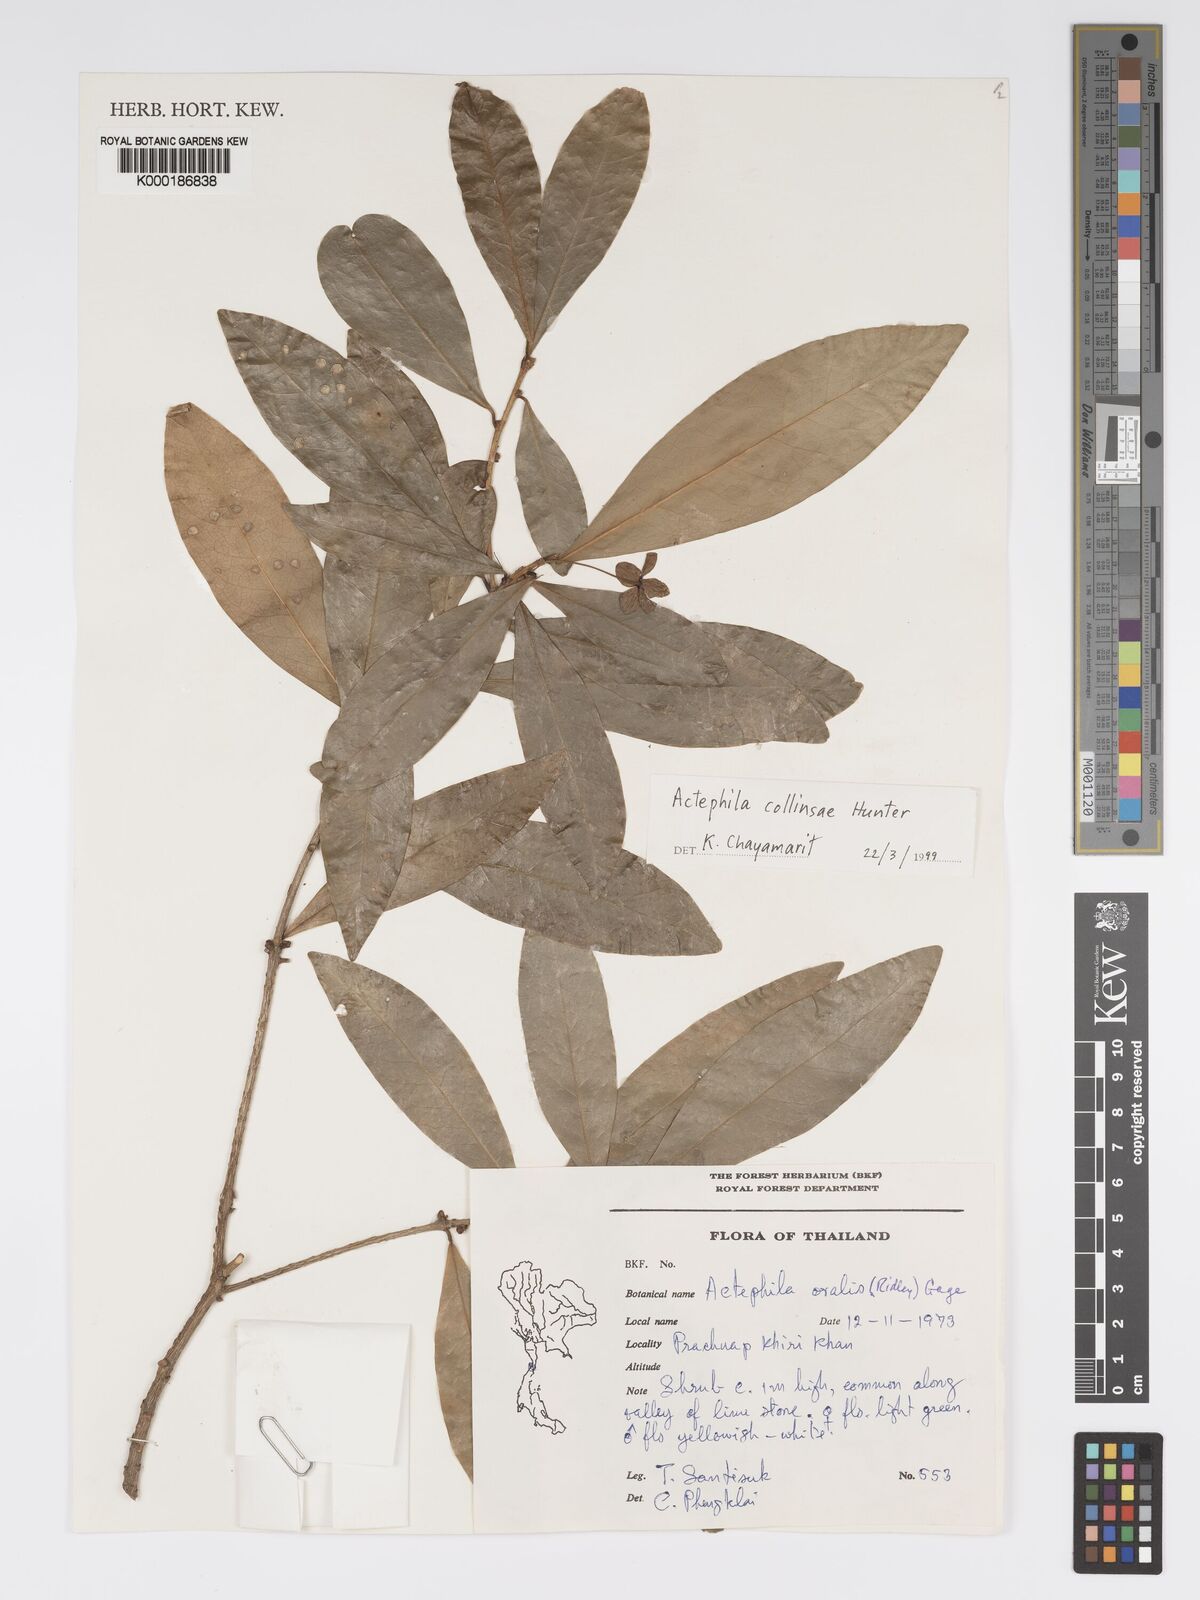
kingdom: Plantae
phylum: Tracheophyta
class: Magnoliopsida
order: Malpighiales
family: Phyllanthaceae
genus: Actephila
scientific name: Actephila collinsiae
